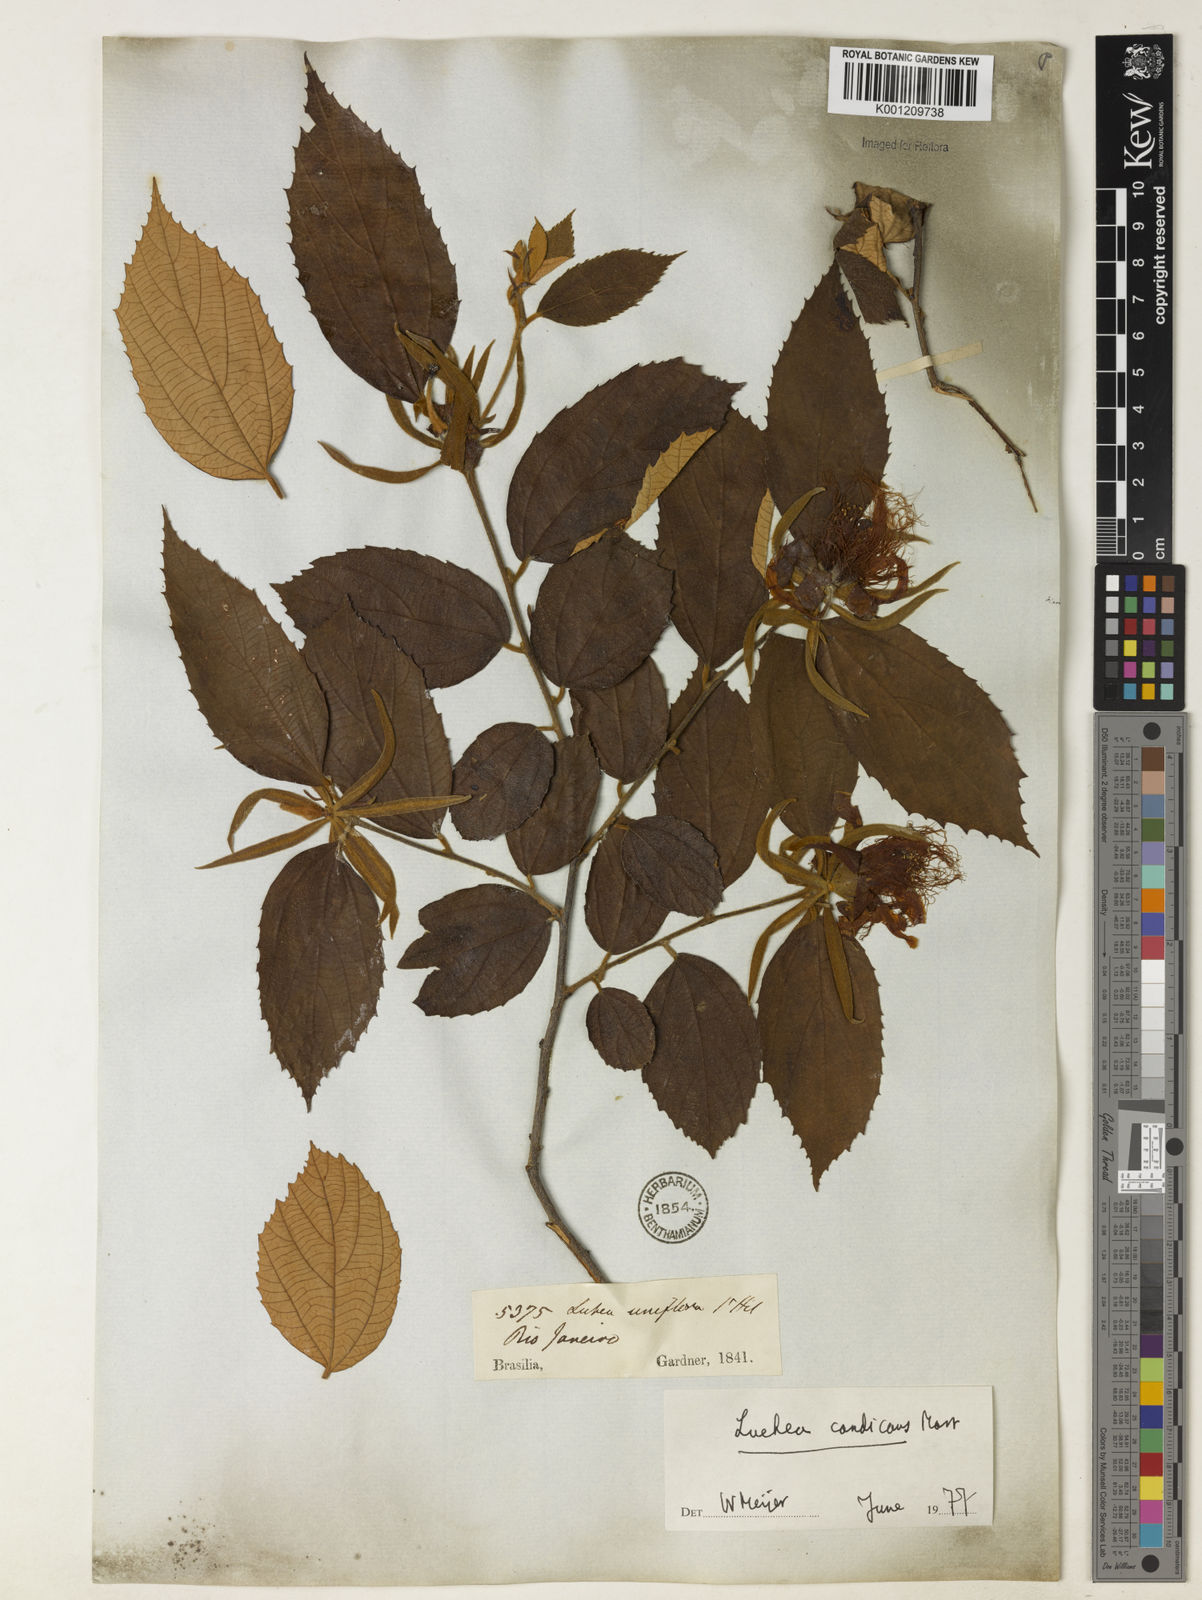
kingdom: Plantae
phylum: Tracheophyta
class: Magnoliopsida
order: Malvales
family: Malvaceae
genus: Luehea
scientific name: Luehea candicans
